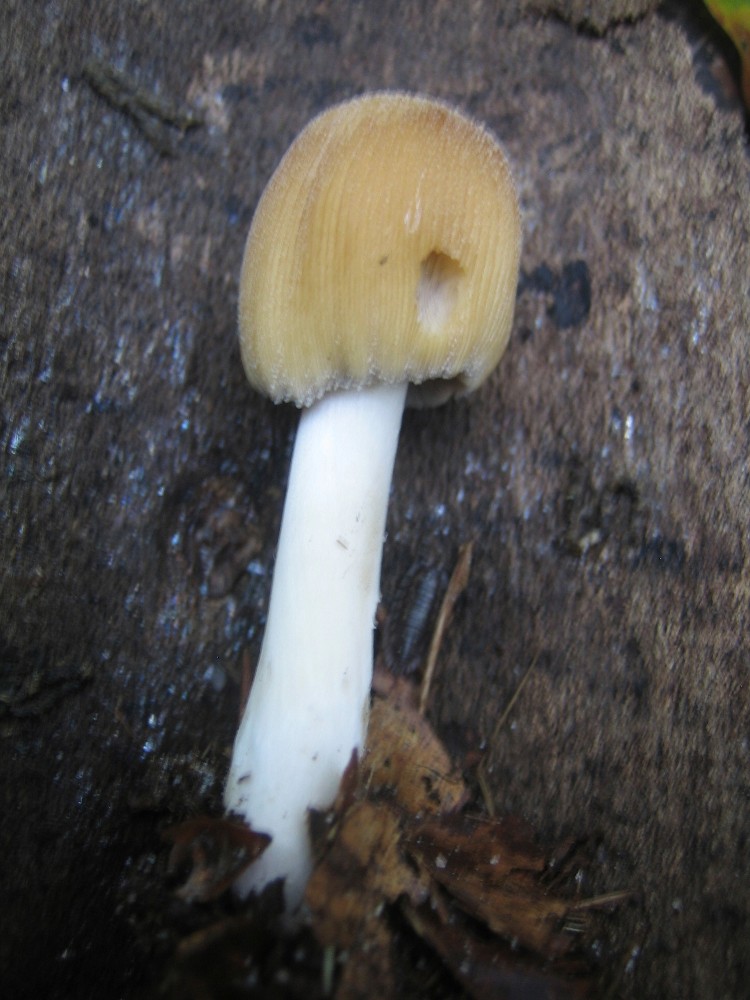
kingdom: Fungi
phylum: Basidiomycota
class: Agaricomycetes
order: Agaricales
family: Psathyrellaceae
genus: Coprinellus
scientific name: Coprinellus micaceus
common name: glimmer-blækhat
